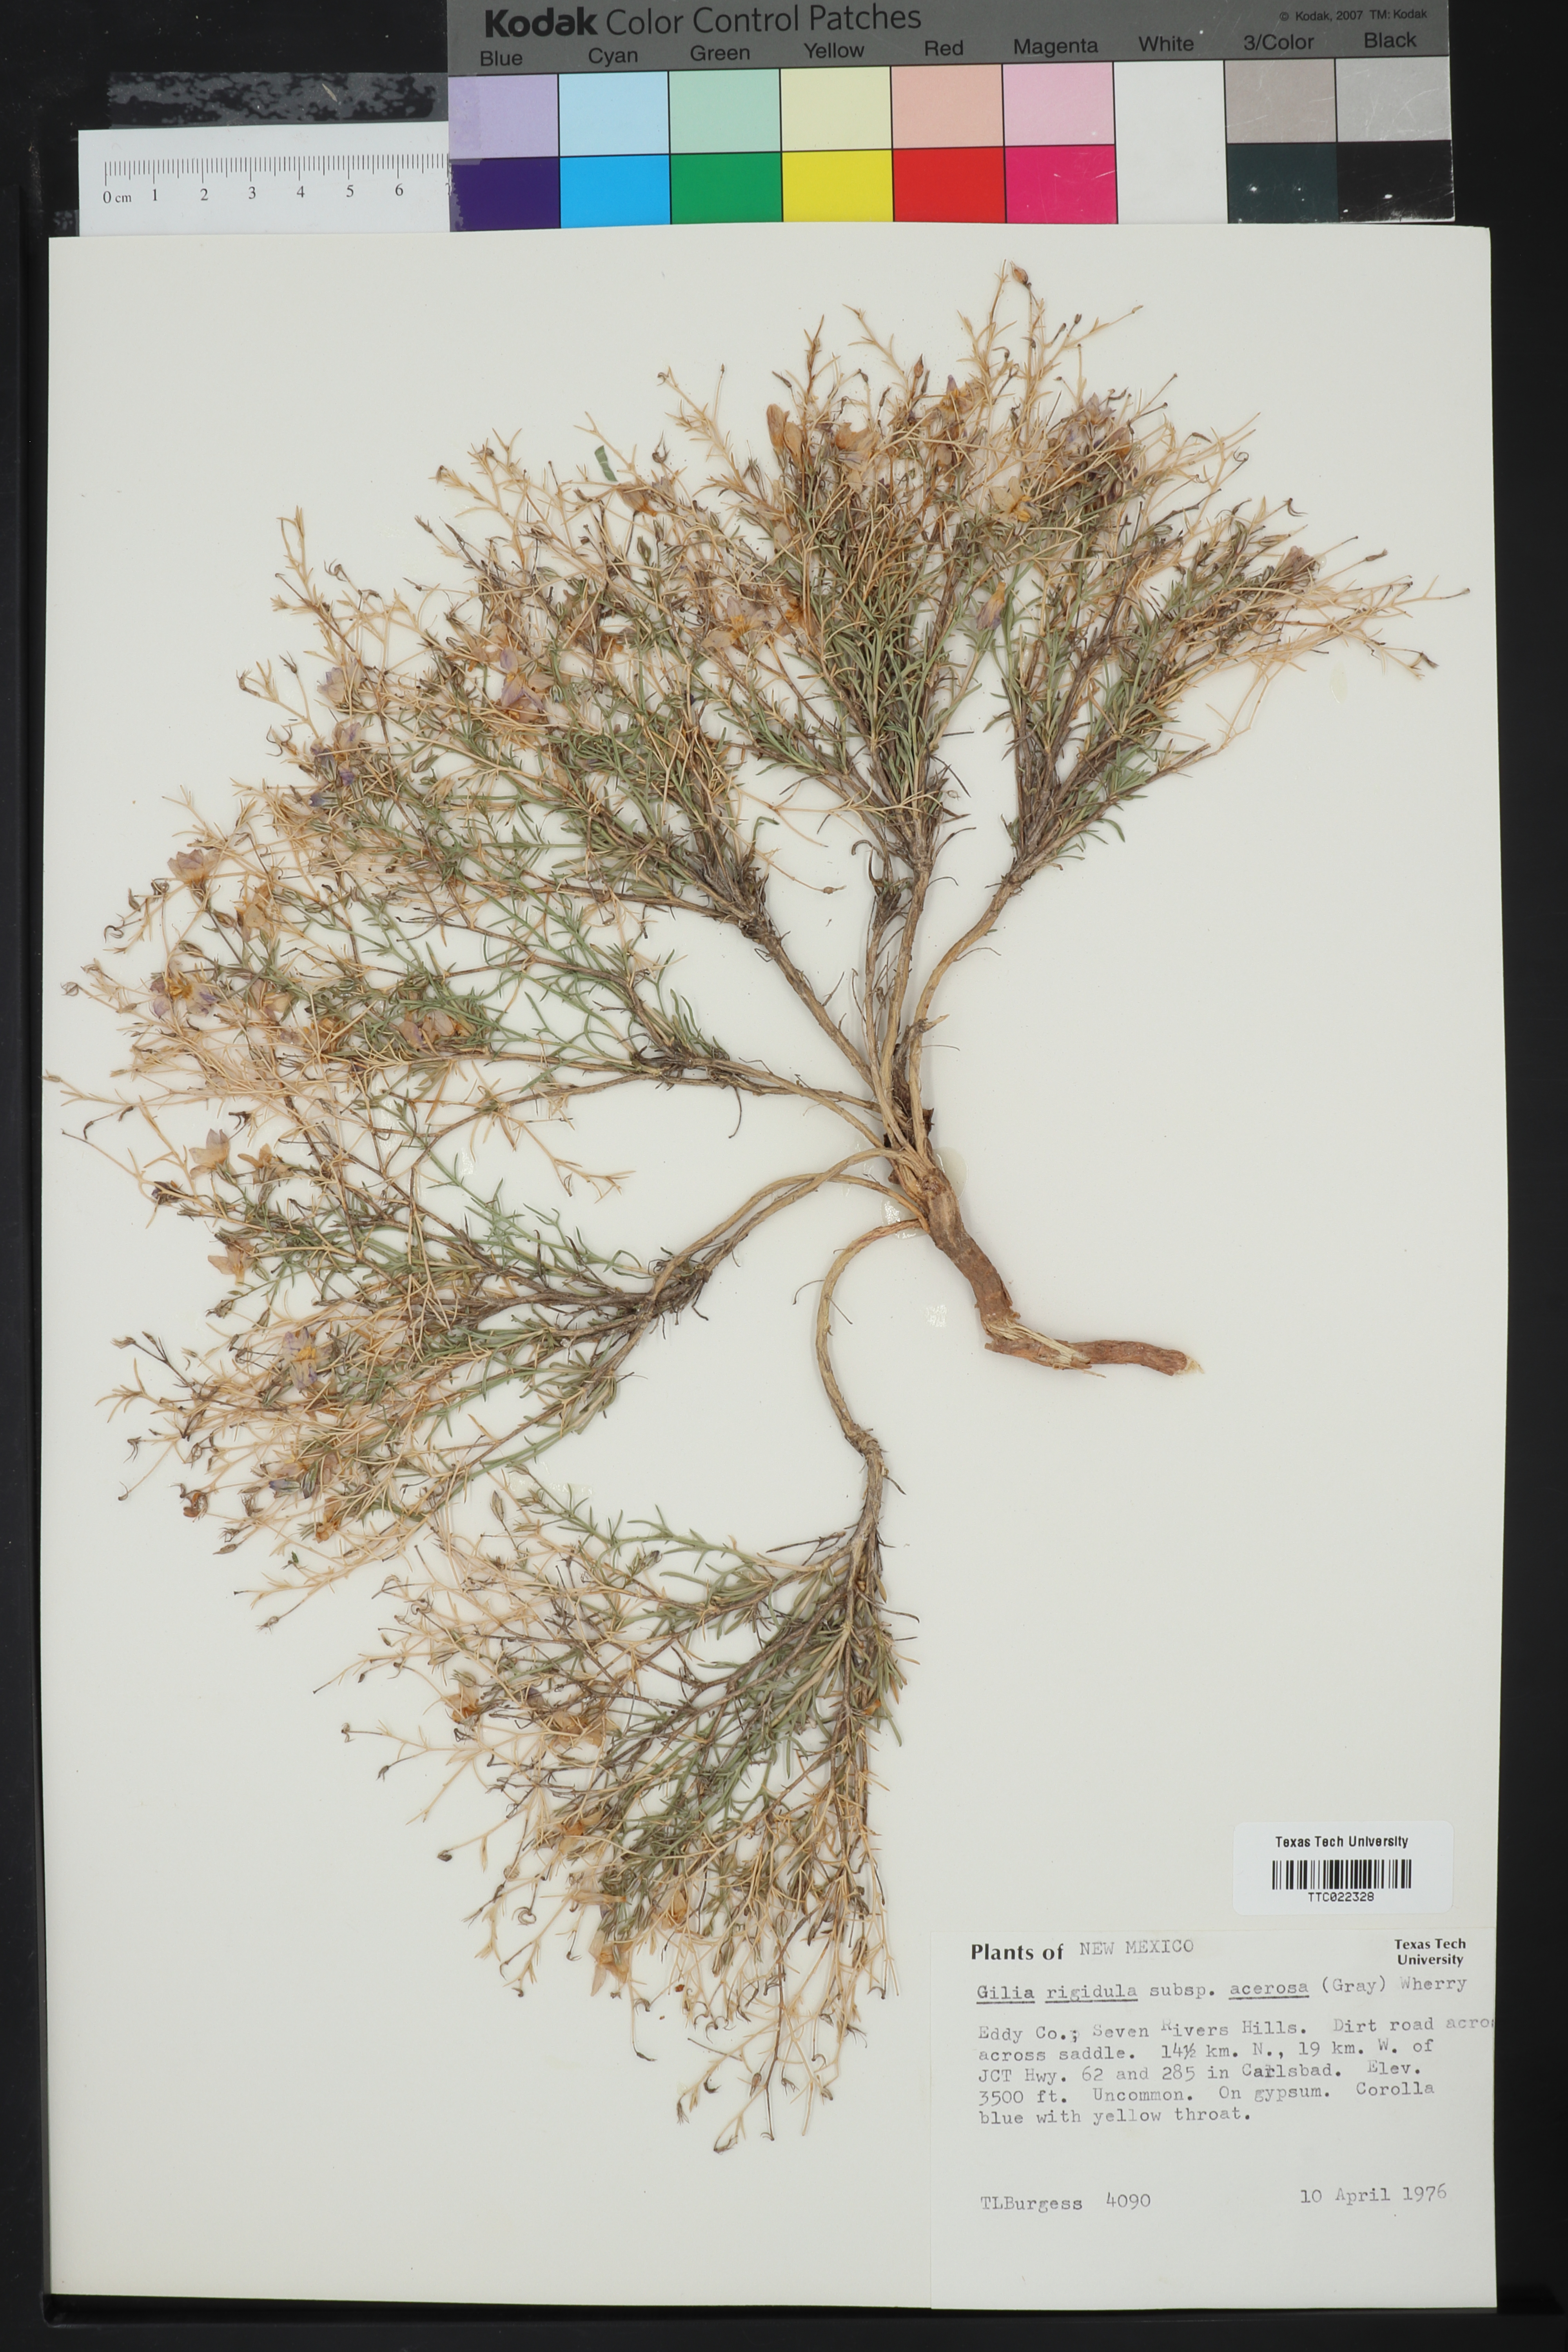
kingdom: Plantae
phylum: Tracheophyta
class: Magnoliopsida
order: Ericales
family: Polemoniaceae
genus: Giliastrum
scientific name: Giliastrum acerosum
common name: Bluebowls
